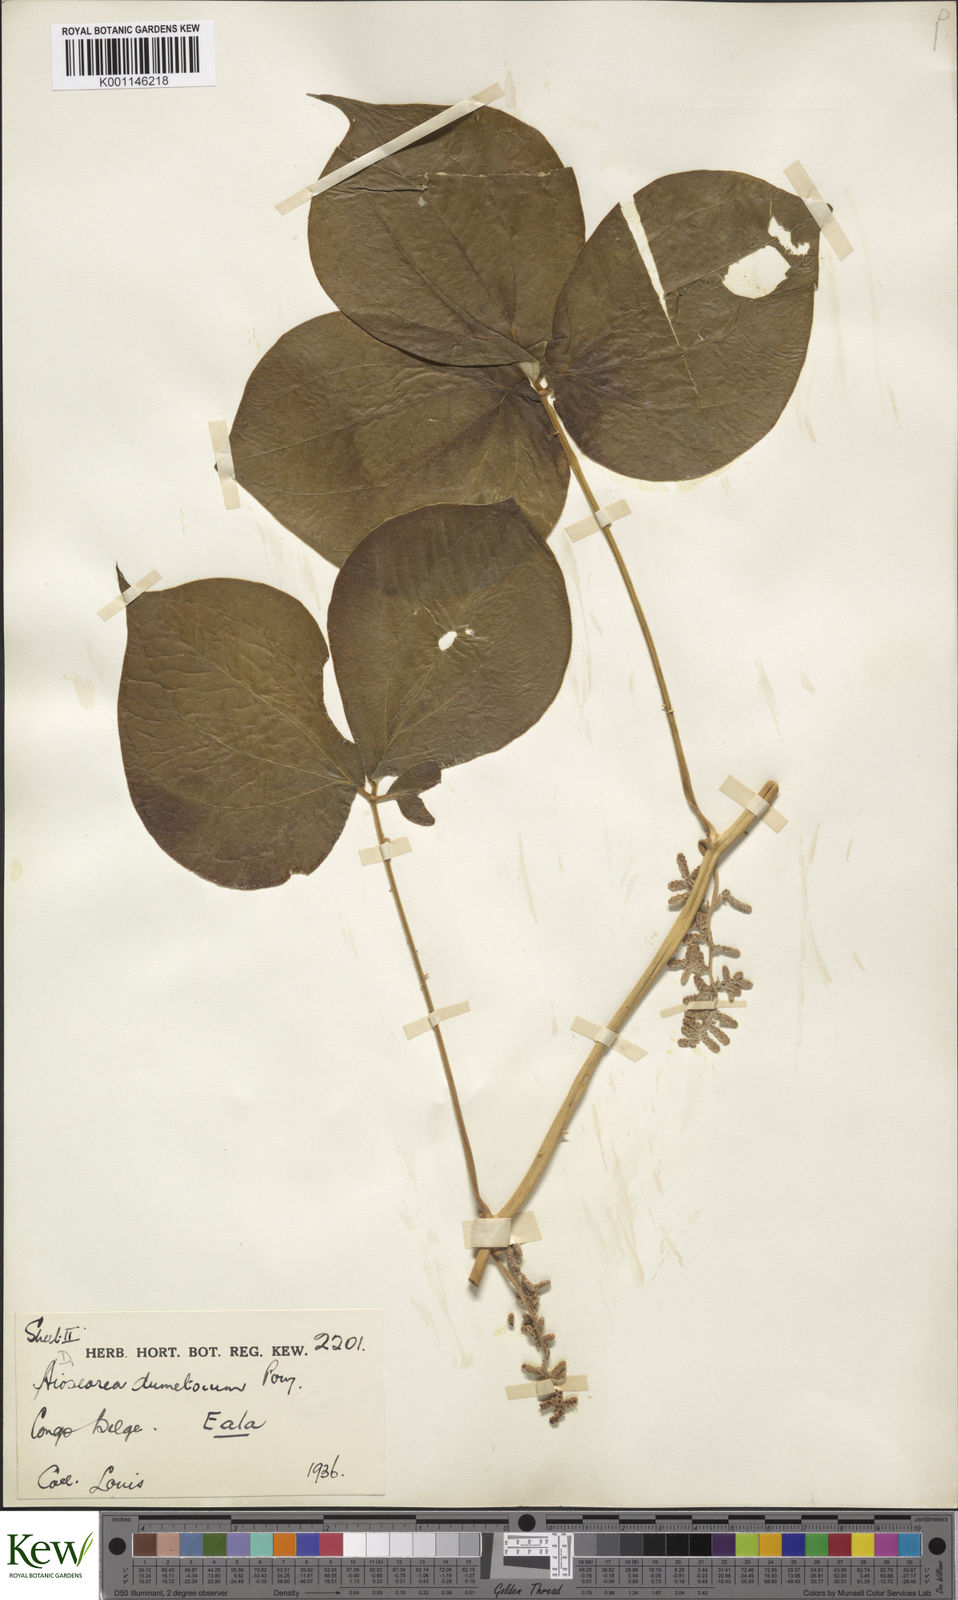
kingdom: Plantae
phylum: Tracheophyta
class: Liliopsida
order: Dioscoreales
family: Dioscoreaceae
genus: Dioscorea
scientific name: Dioscorea dumetorum
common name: African bitter yam
